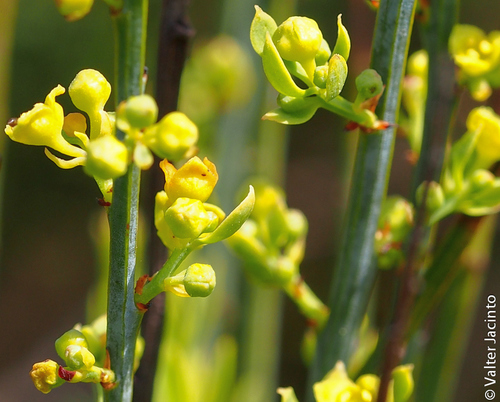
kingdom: Plantae
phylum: Tracheophyta
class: Magnoliopsida
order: Santalales
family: Santalaceae
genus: Osyris
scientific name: Osyris alba
